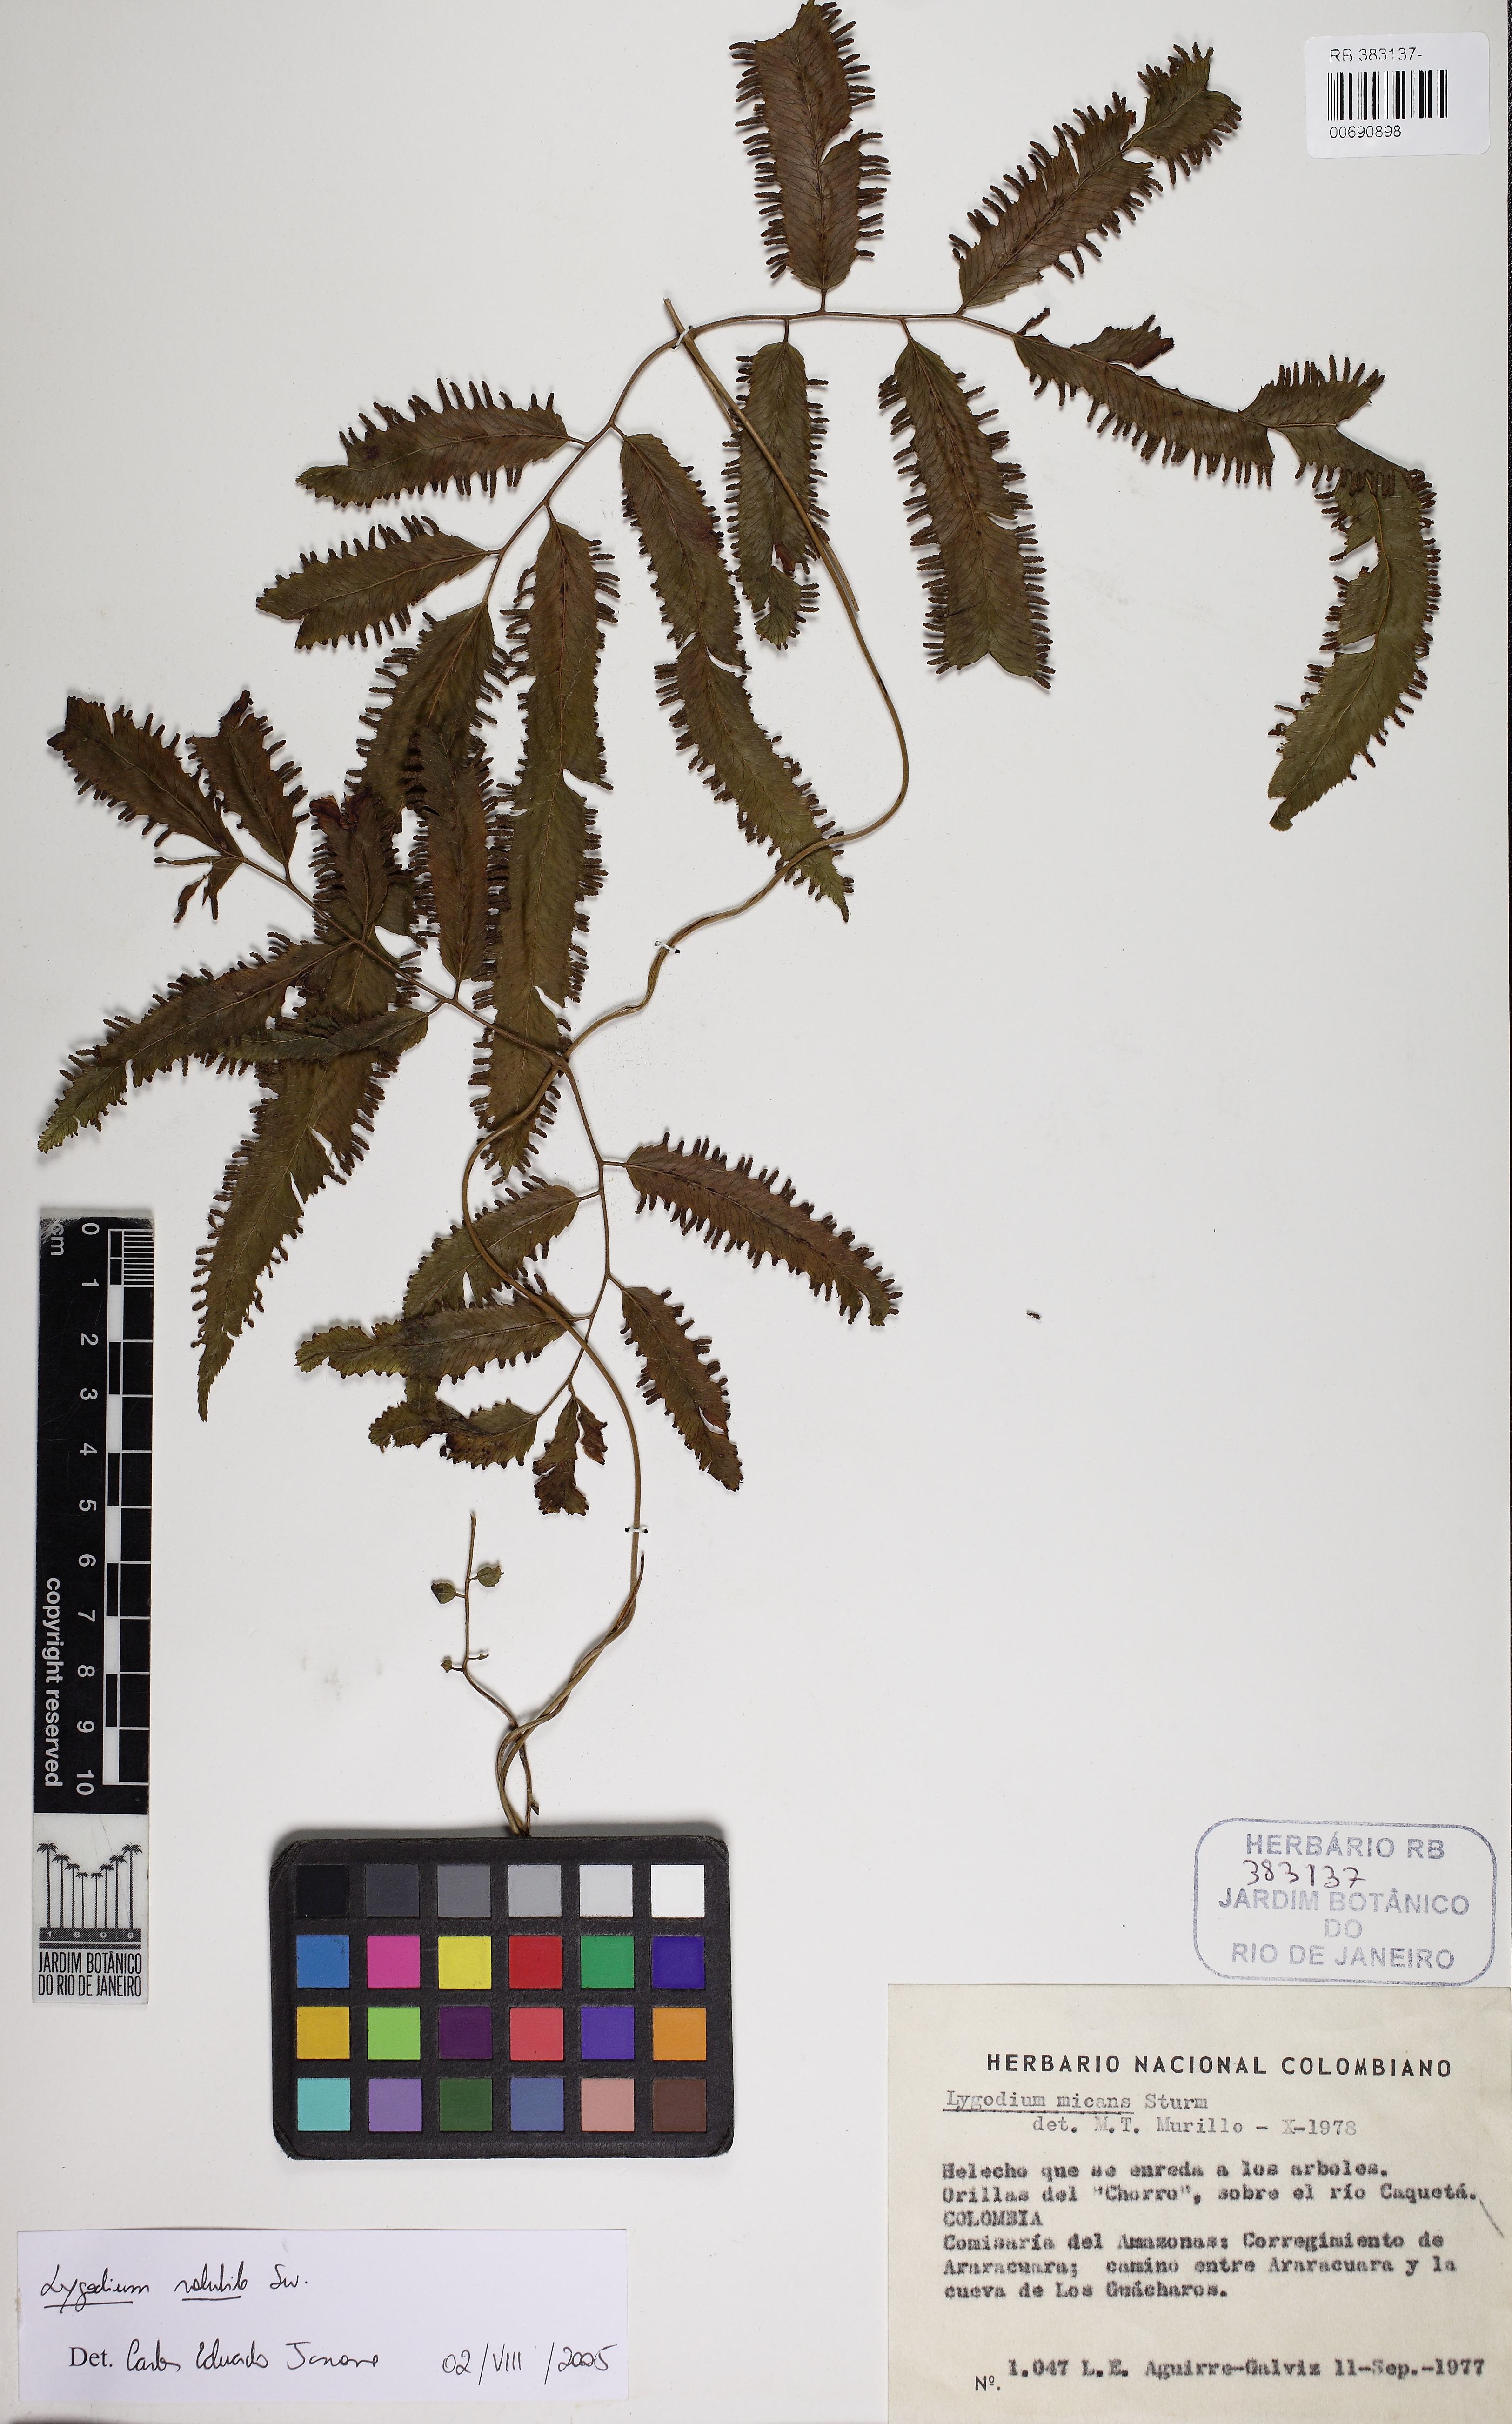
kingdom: Plantae
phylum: Tracheophyta
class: Polypodiopsida
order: Schizaeales
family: Lygodiaceae
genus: Lygodium
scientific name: Lygodium volubile
